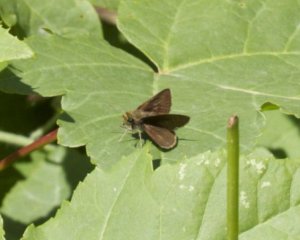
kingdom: Animalia
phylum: Arthropoda
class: Insecta
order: Lepidoptera
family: Hesperiidae
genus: Euphyes
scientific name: Euphyes vestris
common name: Dun Skipper
